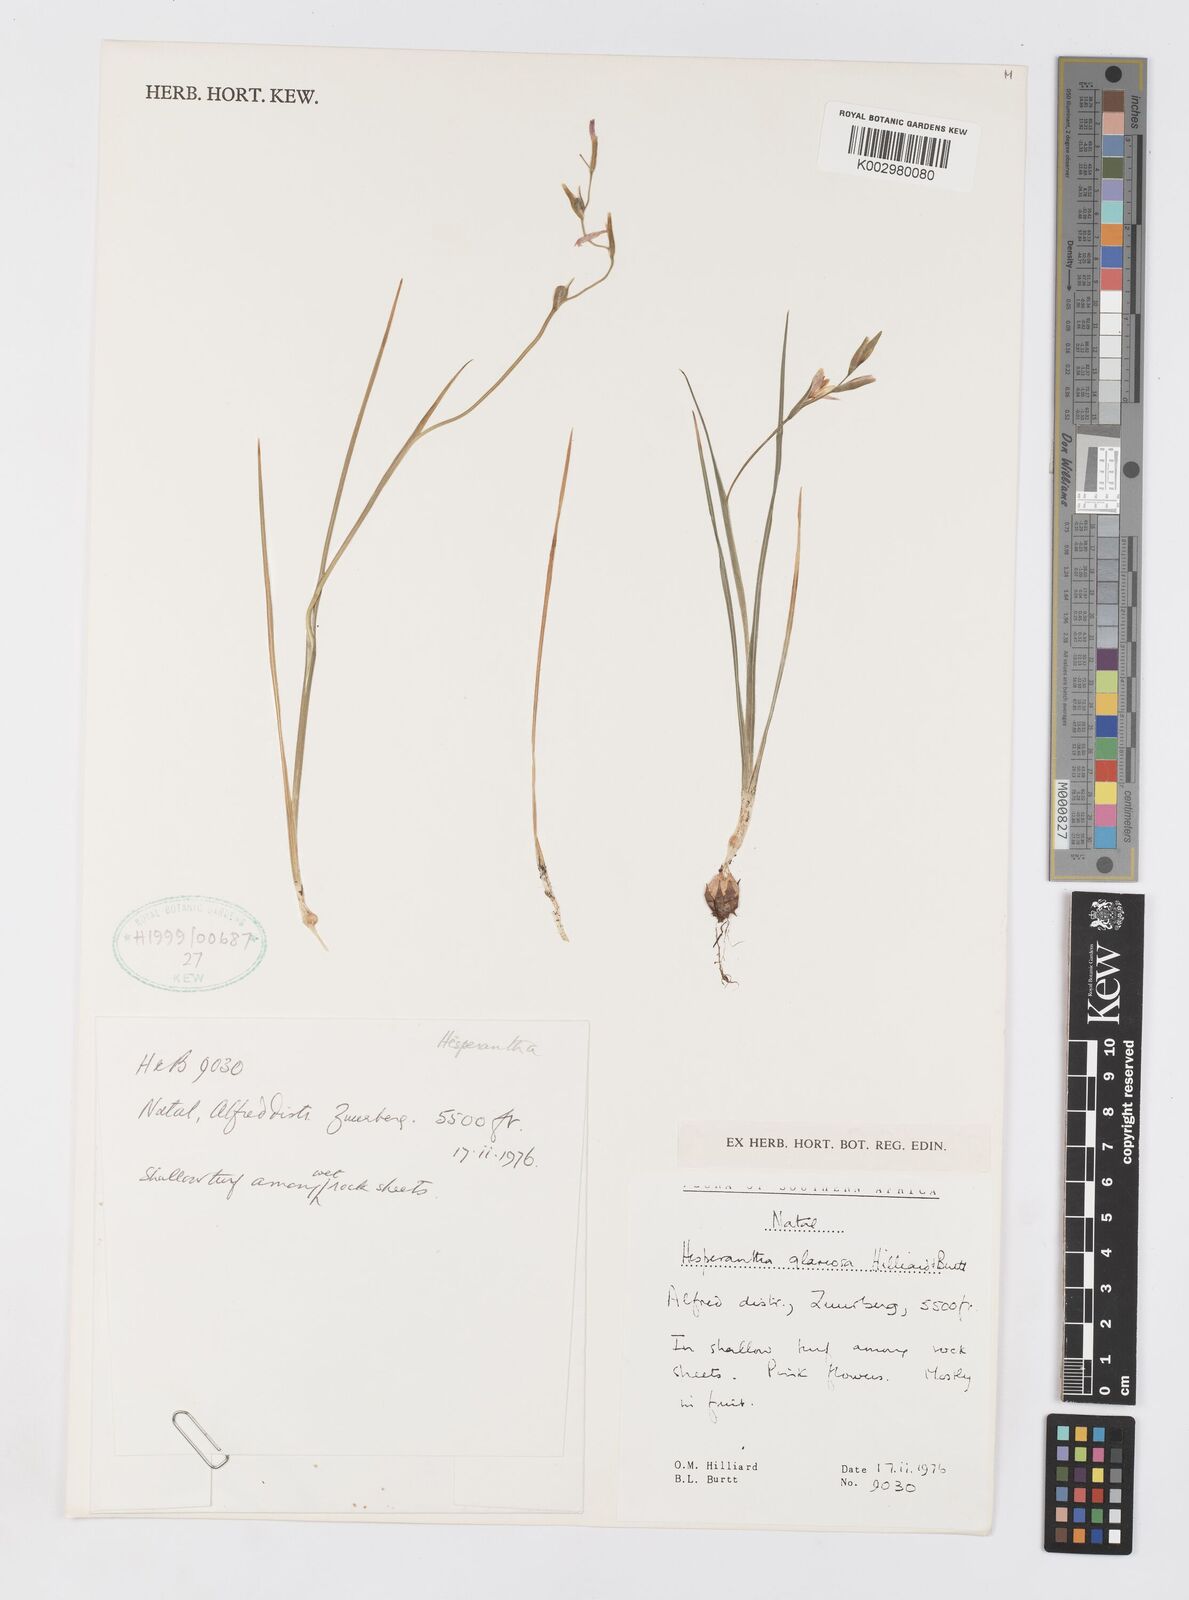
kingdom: Plantae
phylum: Tracheophyta
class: Liliopsida
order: Asparagales
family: Iridaceae
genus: Hesperantha
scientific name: Hesperantha glareosa
